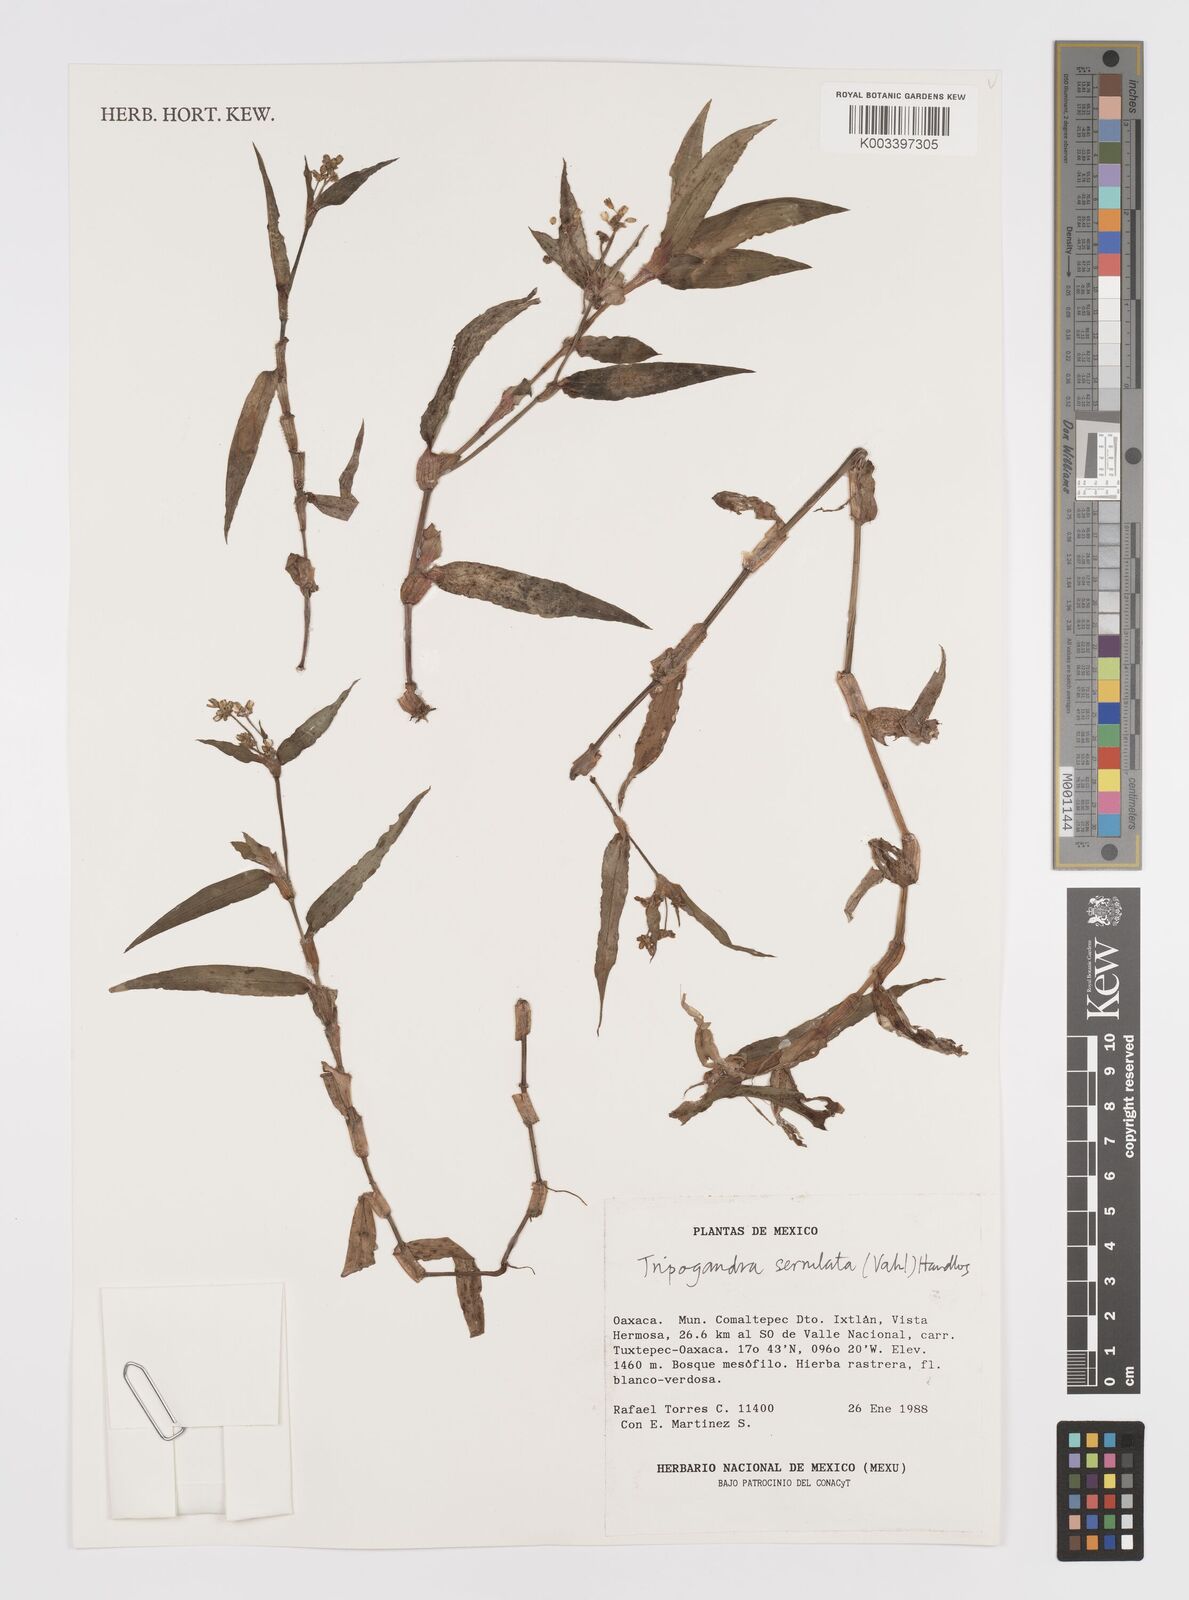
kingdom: Plantae
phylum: Tracheophyta
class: Liliopsida
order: Commelinales
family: Commelinaceae
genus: Callisia
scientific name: Callisia serrulata
